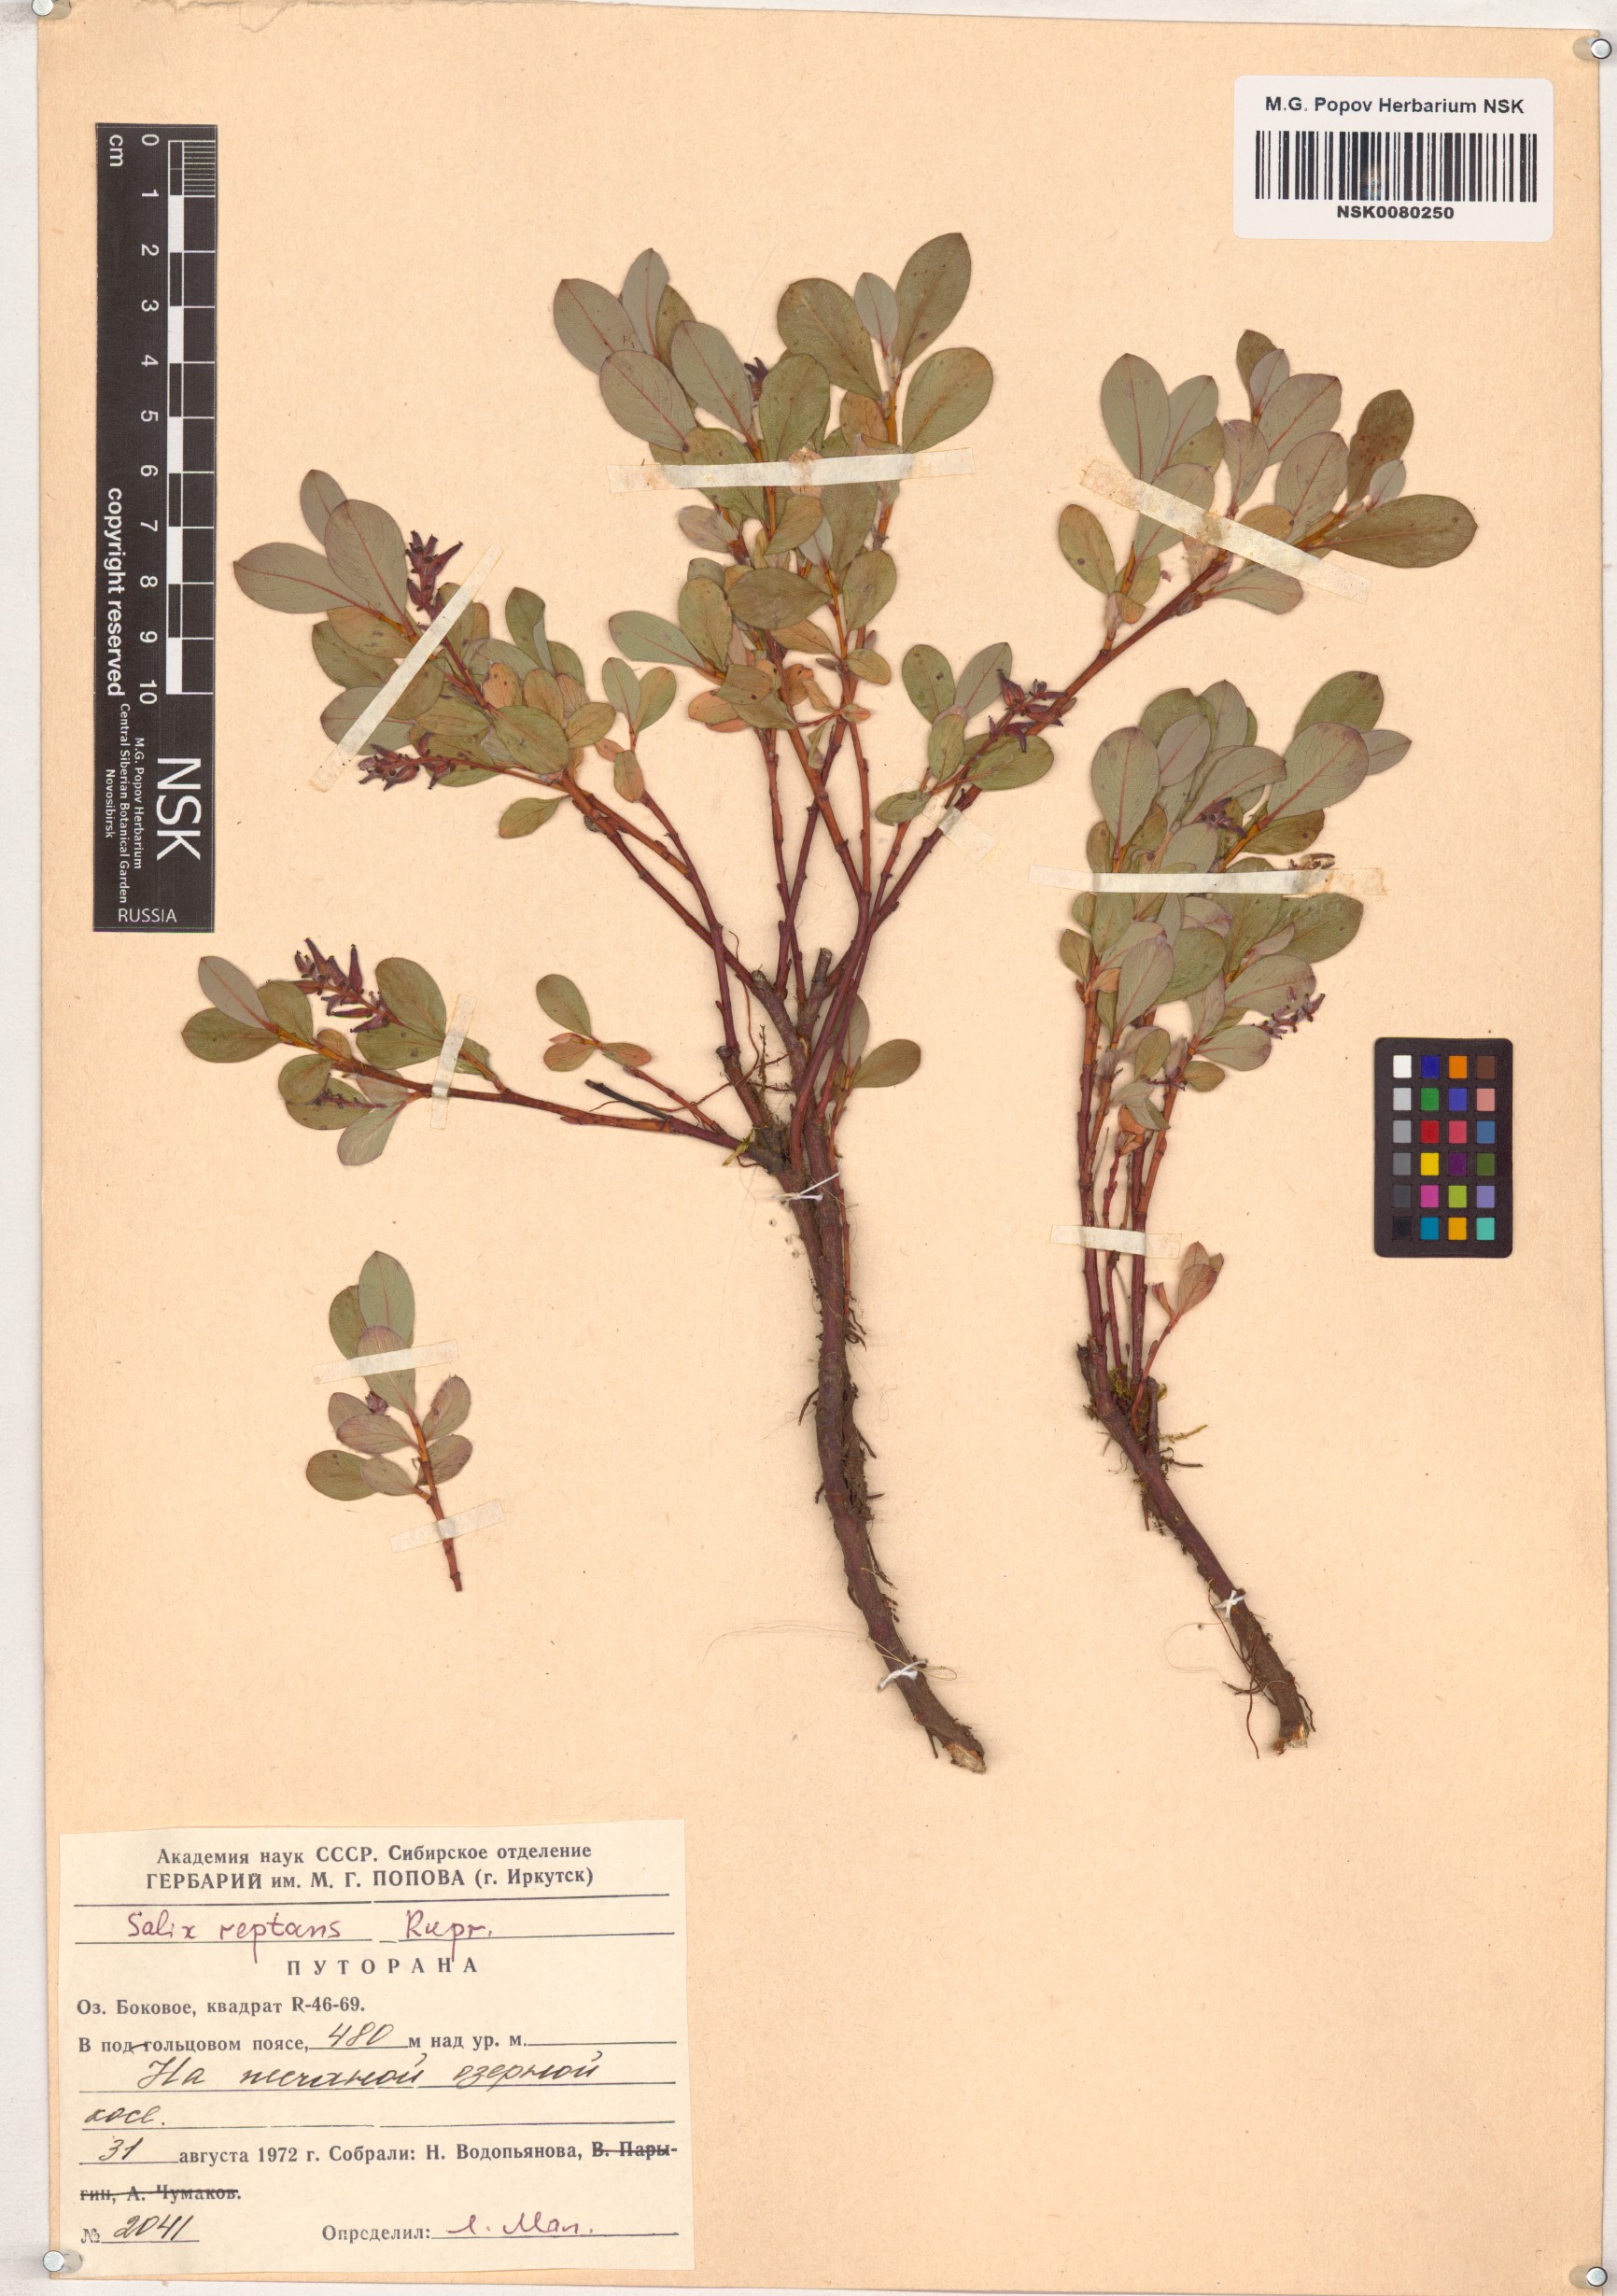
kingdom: Plantae
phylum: Tracheophyta
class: Magnoliopsida
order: Malpighiales
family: Salicaceae
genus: Salix
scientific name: Salix reptans
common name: Arctic creeping willow
